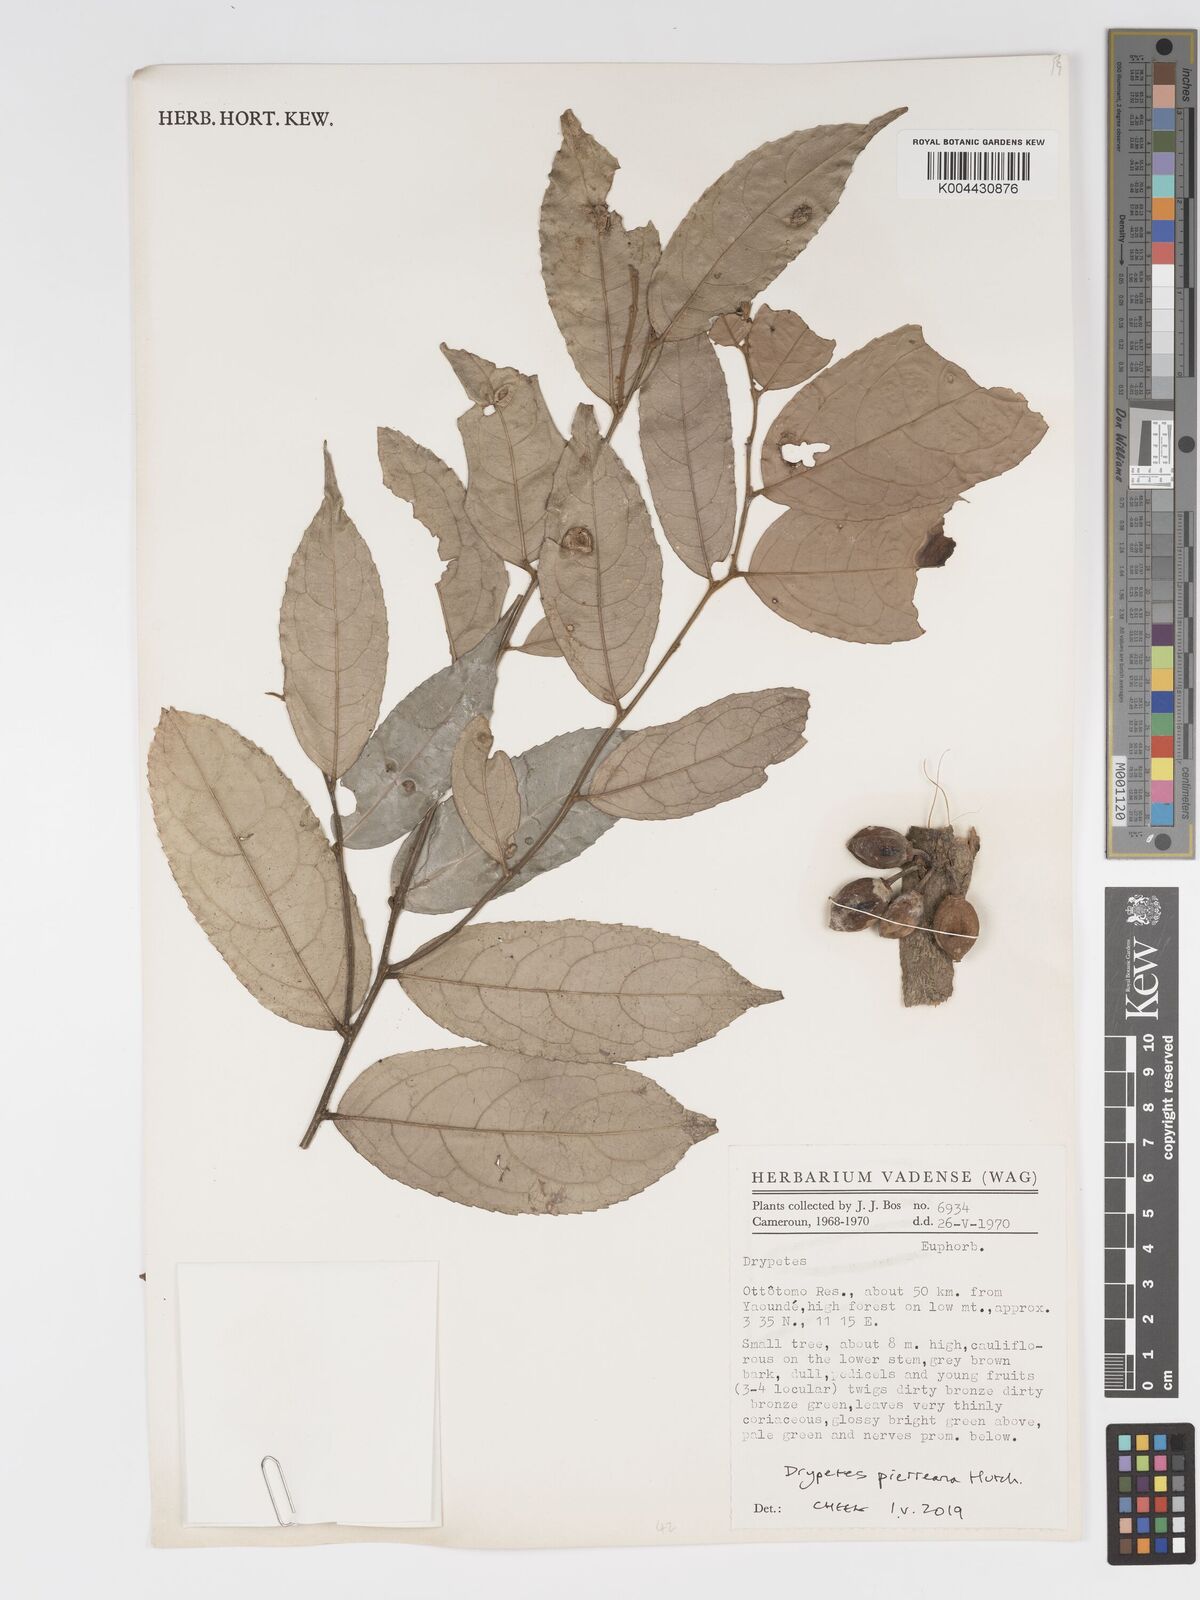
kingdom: Plantae
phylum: Tracheophyta
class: Magnoliopsida
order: Malpighiales
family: Putranjivaceae
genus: Drypetes
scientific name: Drypetes
